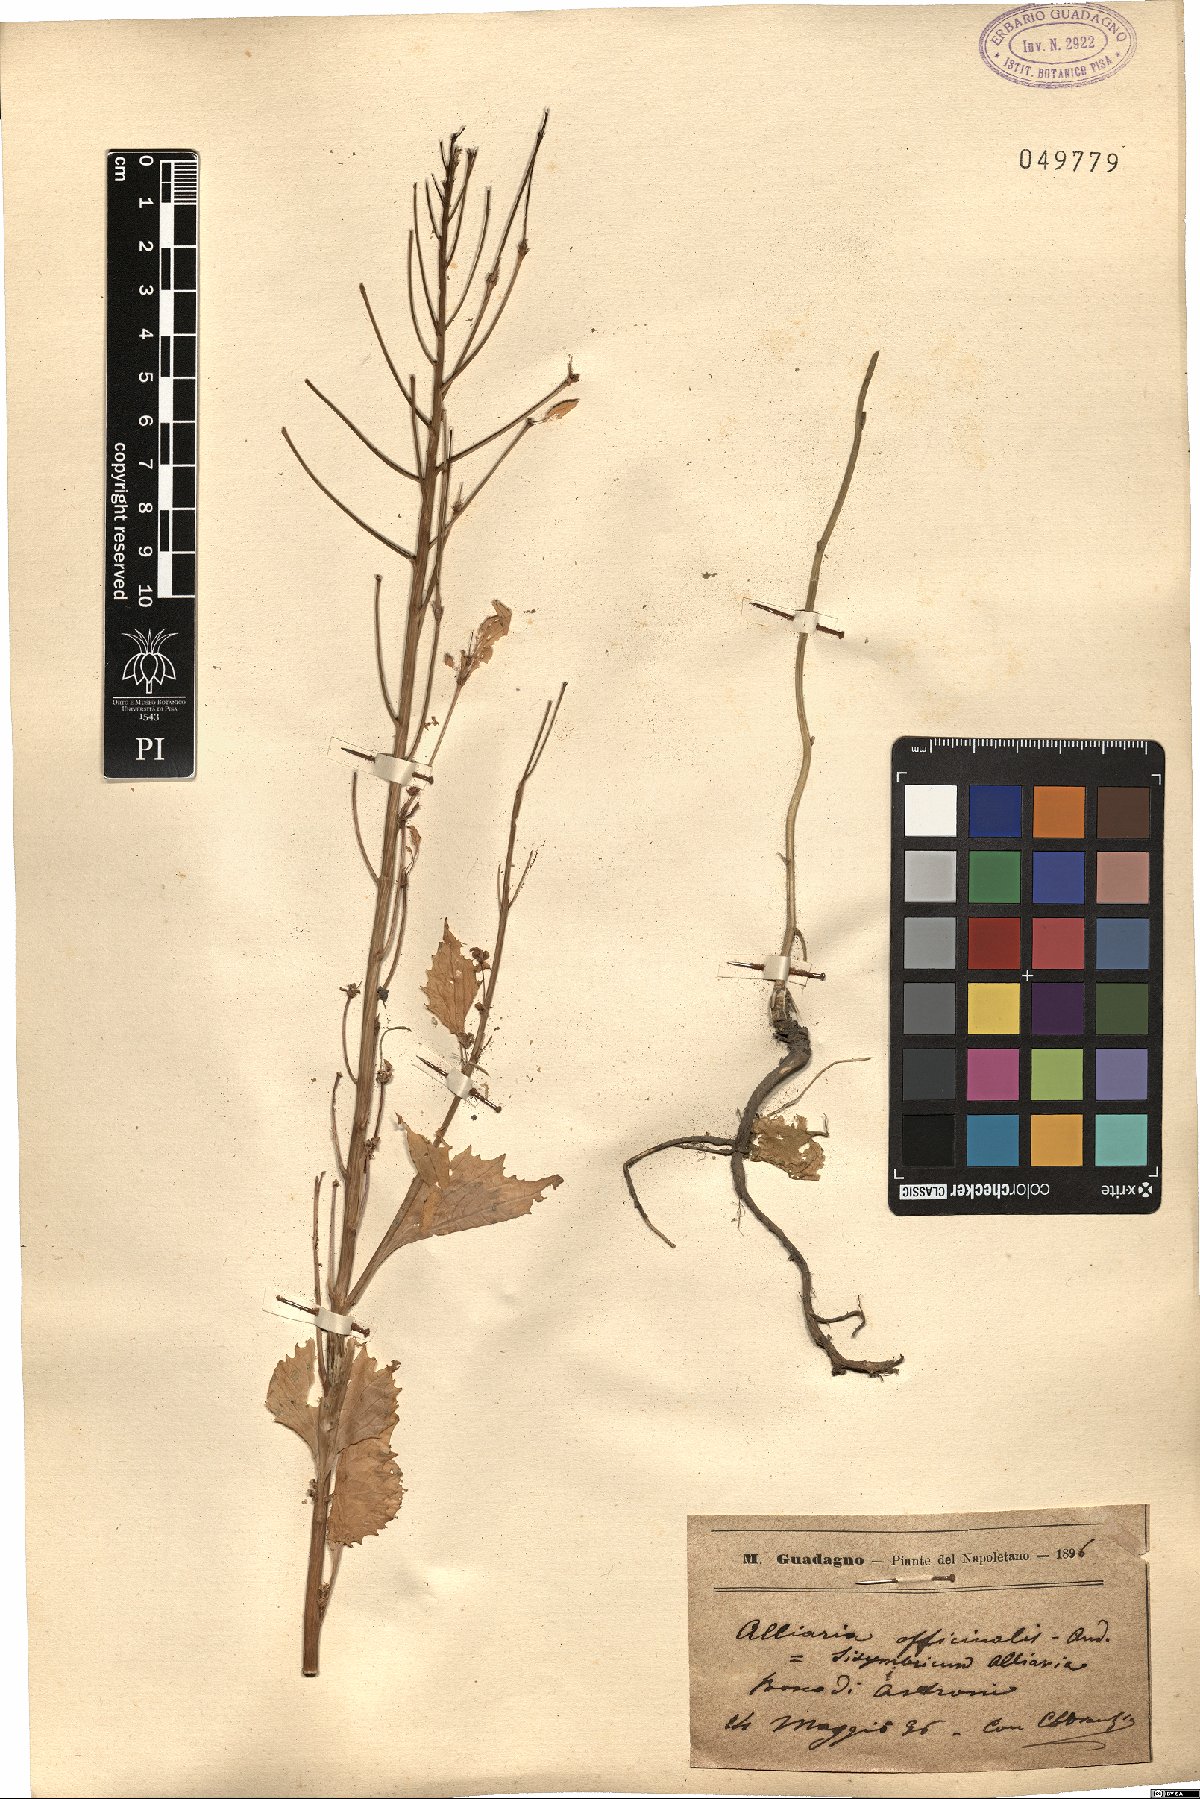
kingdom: Plantae
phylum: Tracheophyta
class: Magnoliopsida
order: Brassicales
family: Brassicaceae
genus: Alliaria
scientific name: Alliaria petiolata
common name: Garlic mustard
